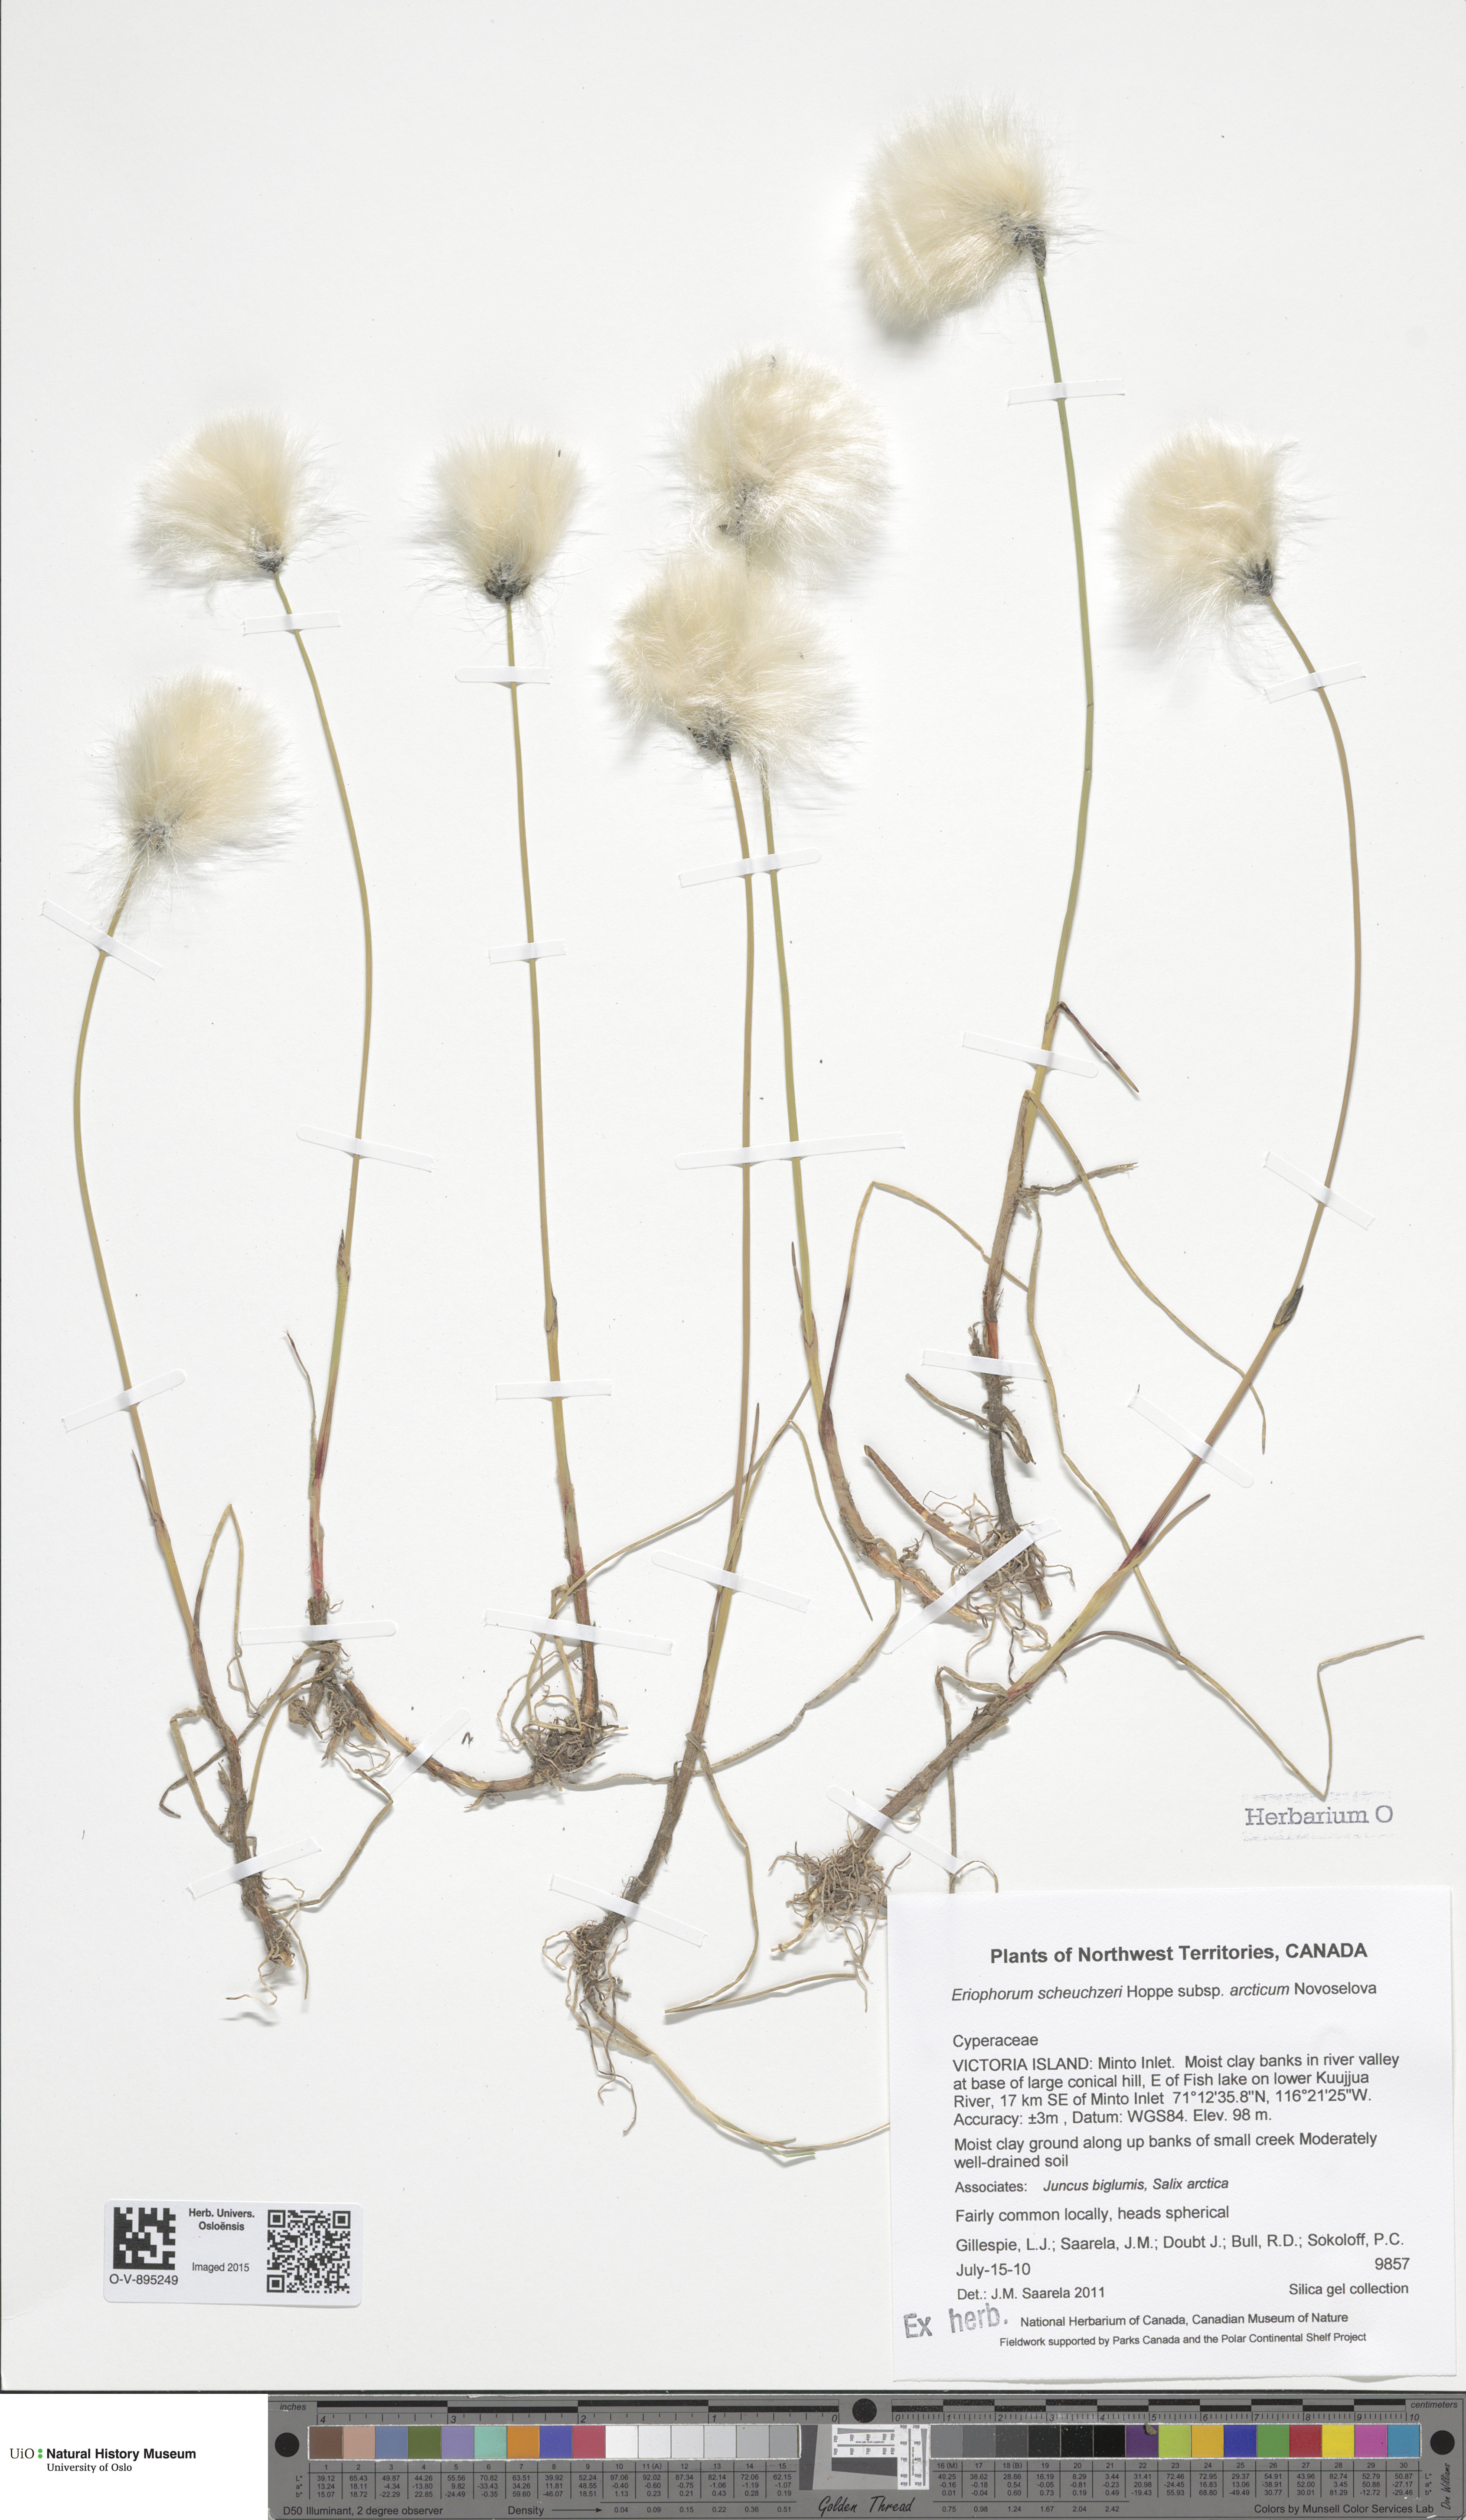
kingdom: Plantae
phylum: Tracheophyta
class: Liliopsida
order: Poales
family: Cyperaceae
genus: Eriophorum
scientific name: Eriophorum scheuchzeri
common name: Scheuchzer's cottongrass
